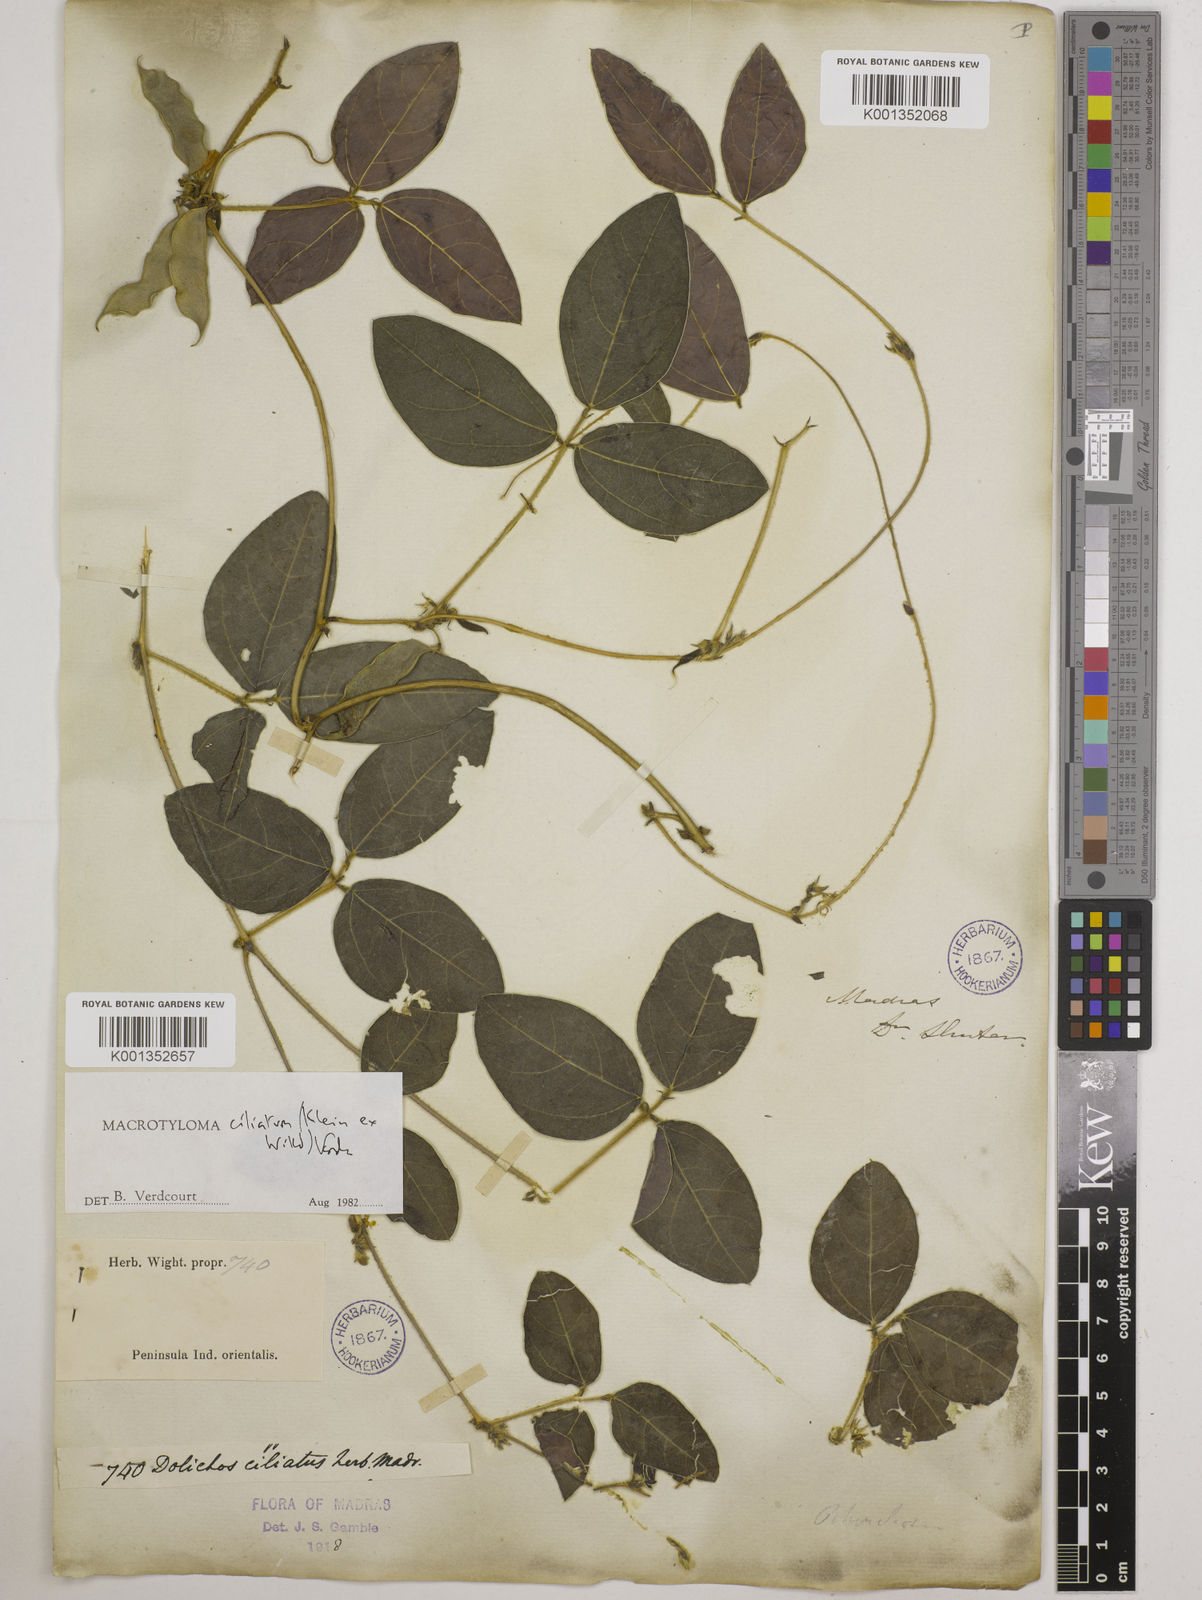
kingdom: Plantae
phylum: Tracheophyta
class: Magnoliopsida
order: Fabales
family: Fabaceae
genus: Macrotyloma
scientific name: Macrotyloma ciliatum
